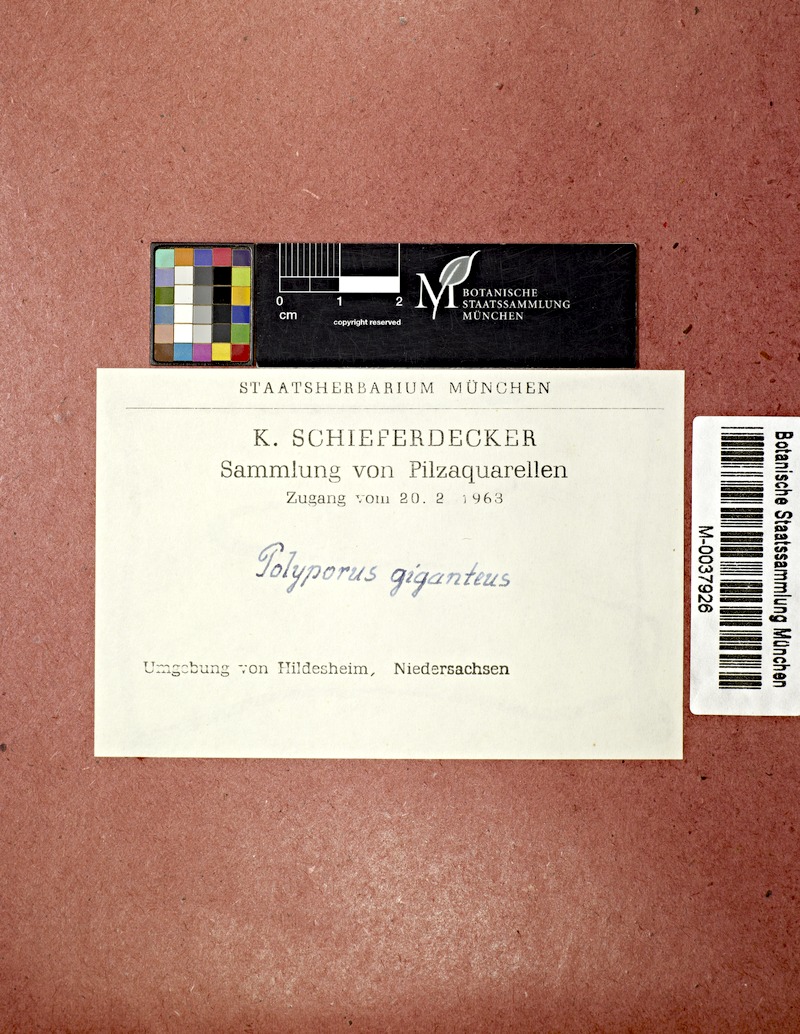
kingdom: Fungi
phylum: Basidiomycota
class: Agaricomycetes
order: Polyporales
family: Meripilaceae
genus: Meripilus
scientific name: Meripilus giganteus
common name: Giant polypore
